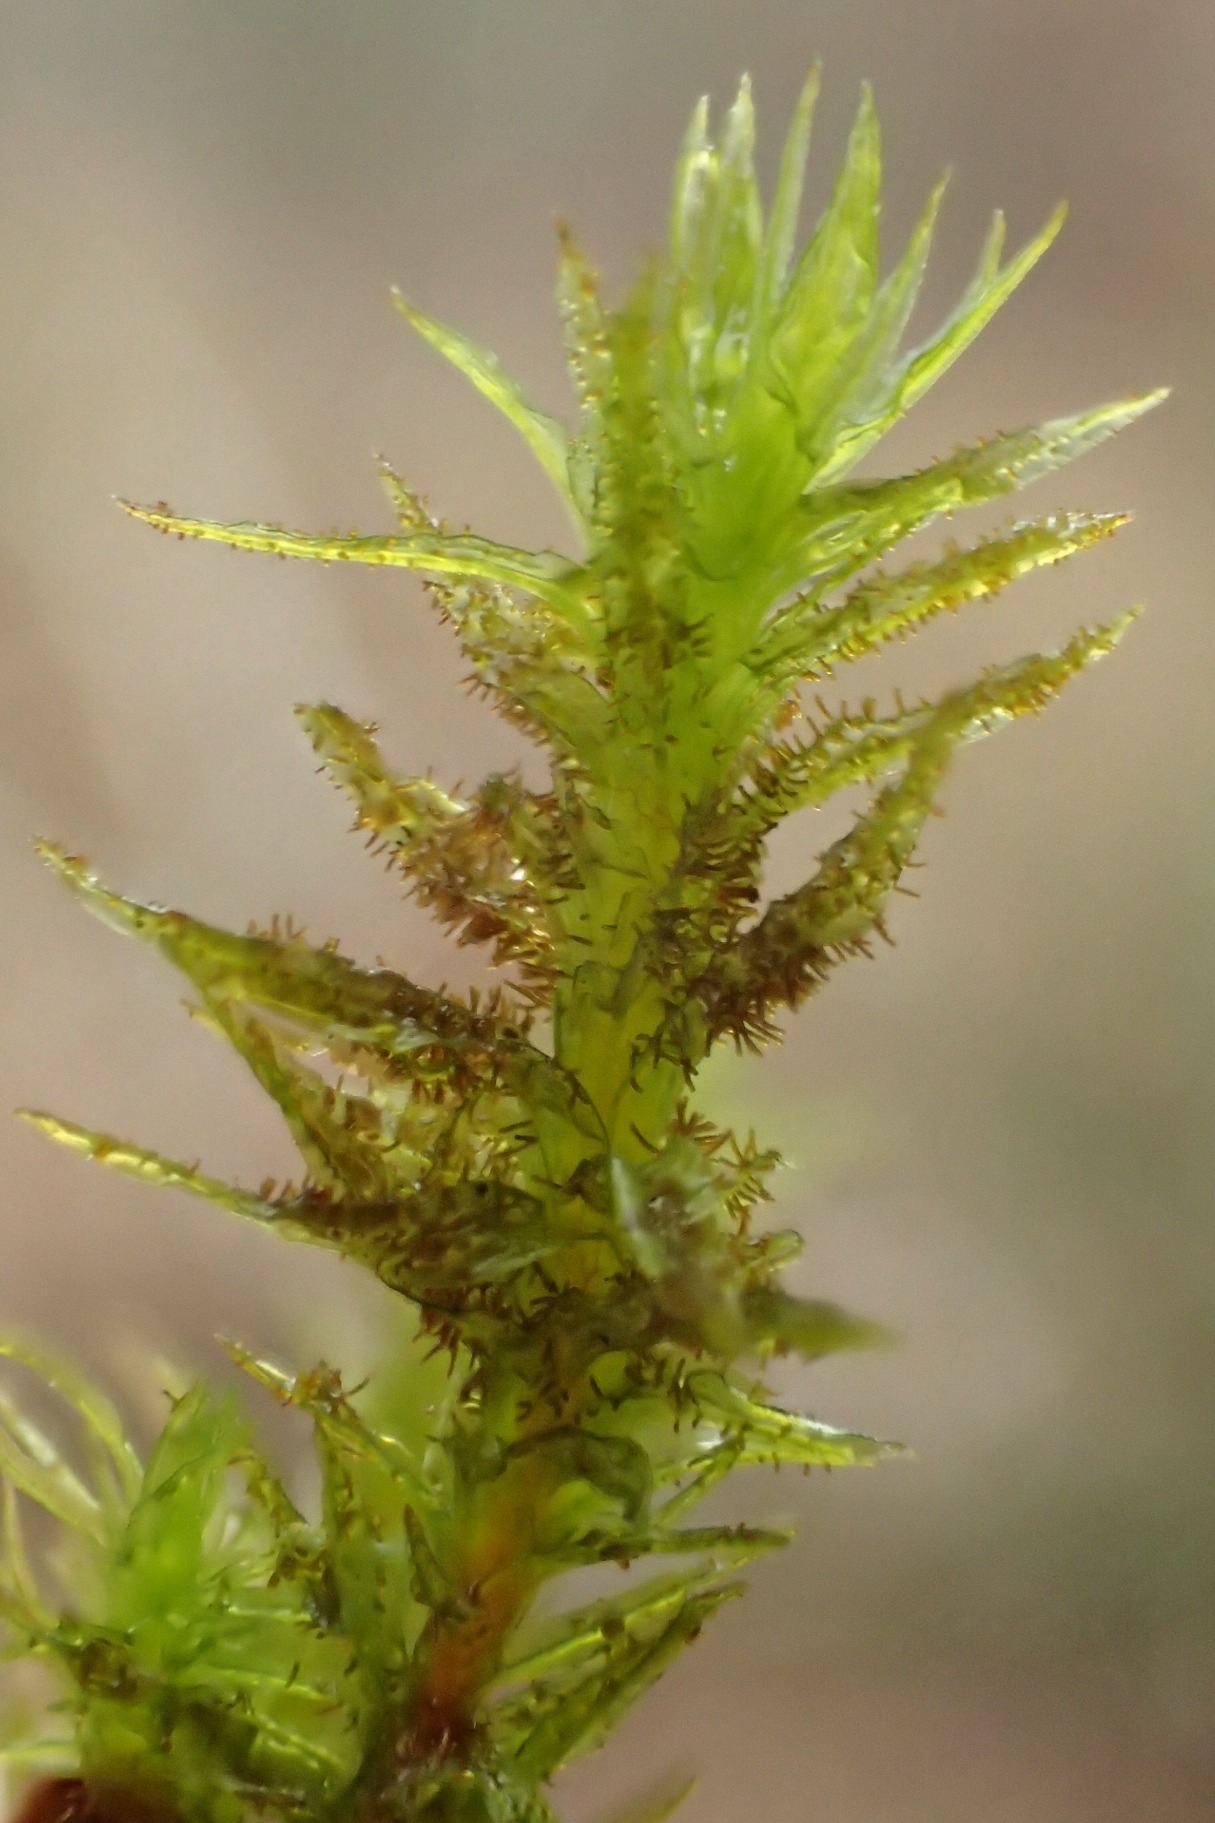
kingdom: Plantae
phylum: Bryophyta
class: Bryopsida
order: Orthotrichales
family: Orthotrichaceae
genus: Pulvigera
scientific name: Pulvigera lyellii
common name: Stor furehætte
